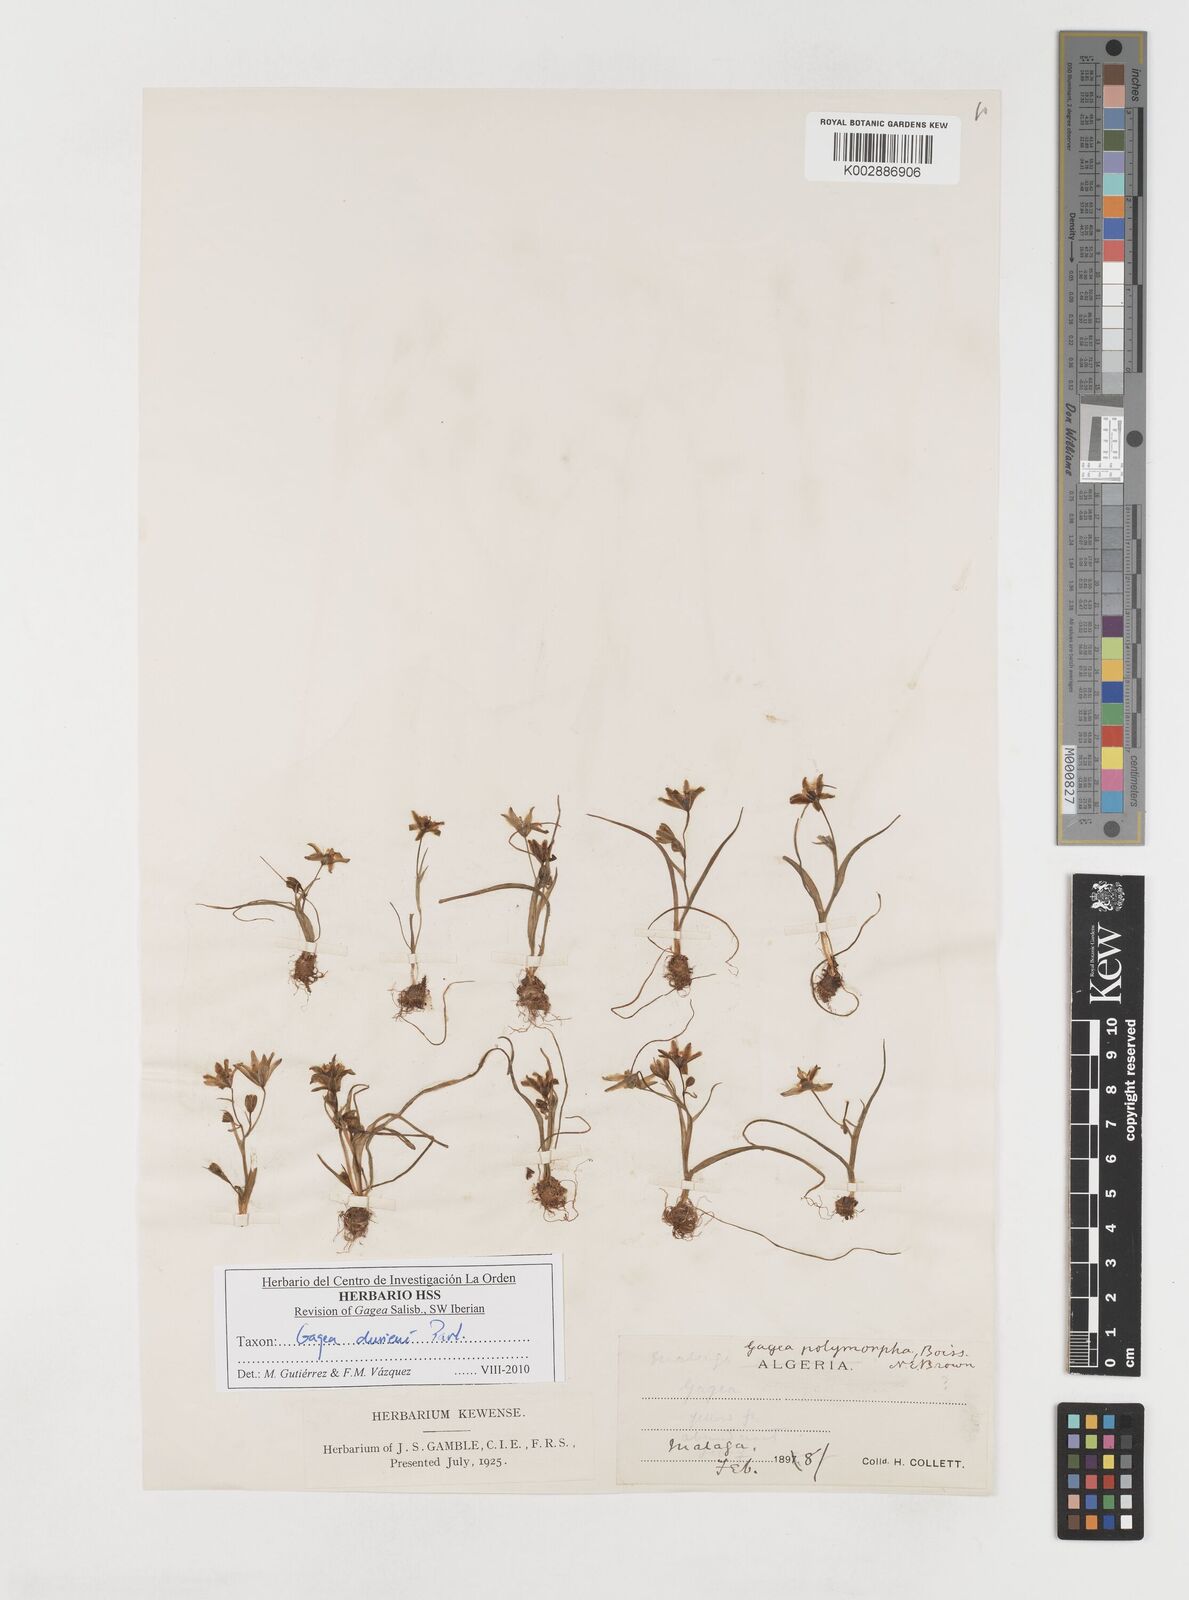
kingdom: Plantae
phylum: Tracheophyta
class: Liliopsida
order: Liliales
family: Liliaceae
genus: Gagea
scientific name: Gagea durieui
